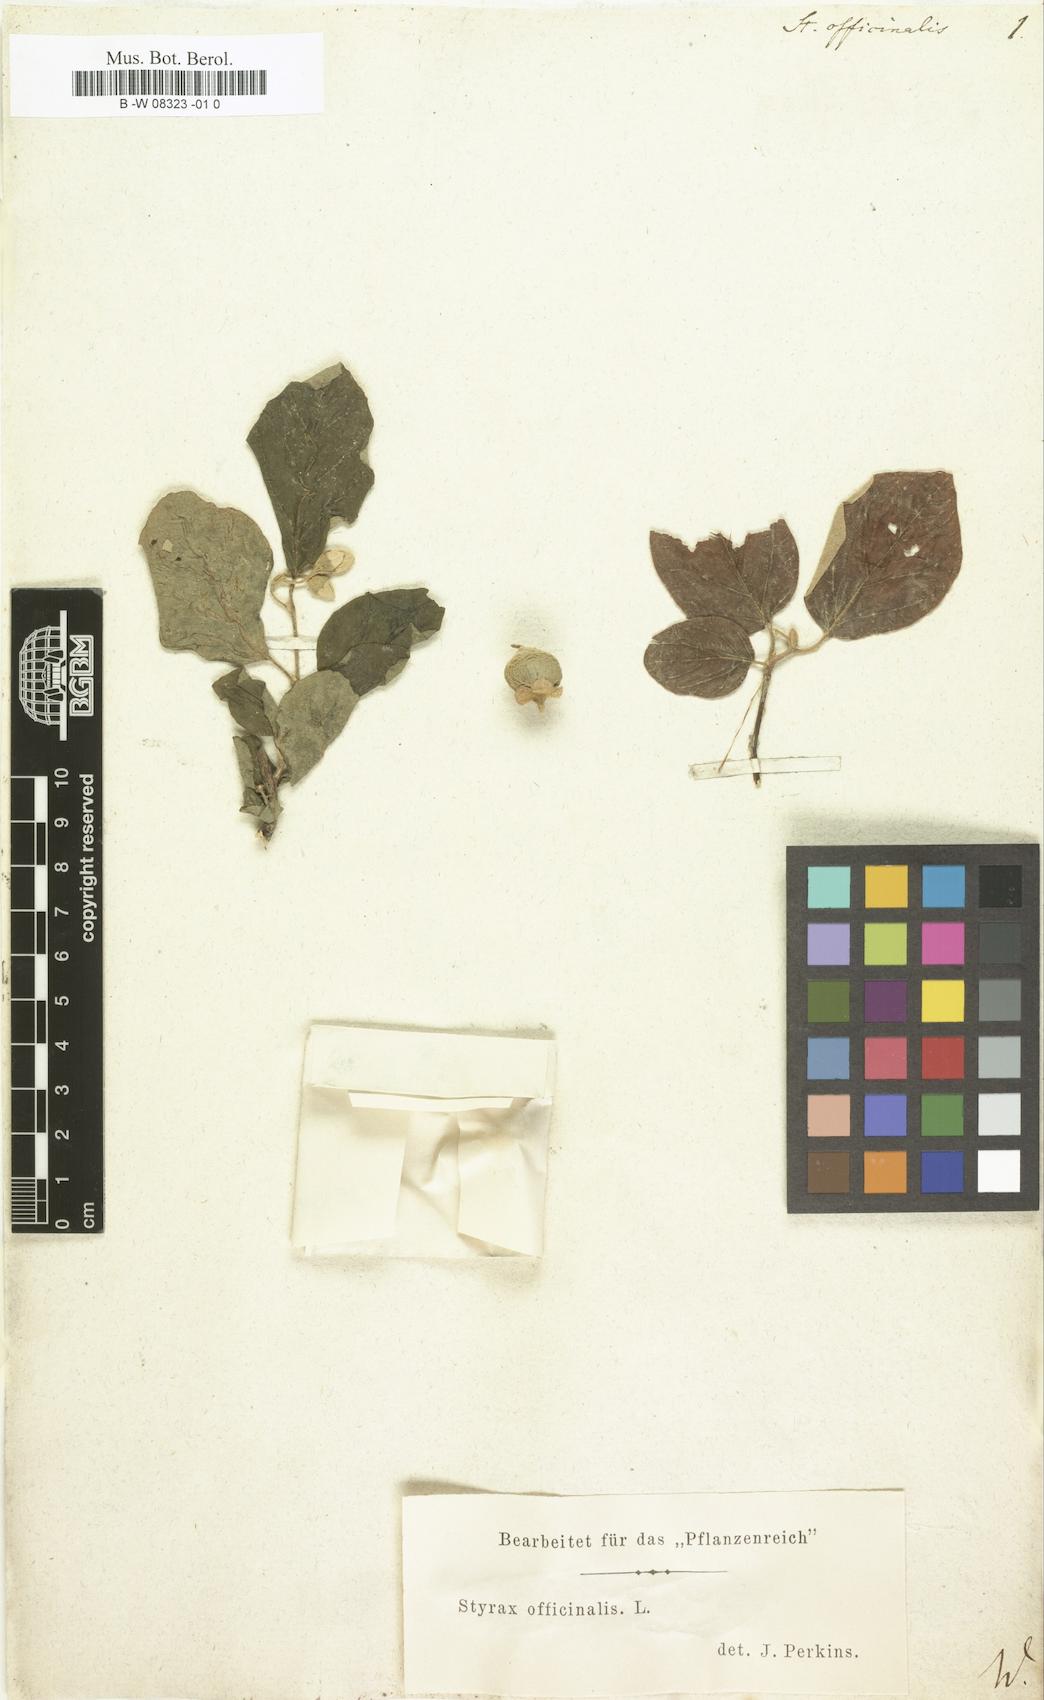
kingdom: Plantae
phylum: Tracheophyta
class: Magnoliopsida
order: Ericales
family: Styracaceae
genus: Styrax
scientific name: Styrax officinale
